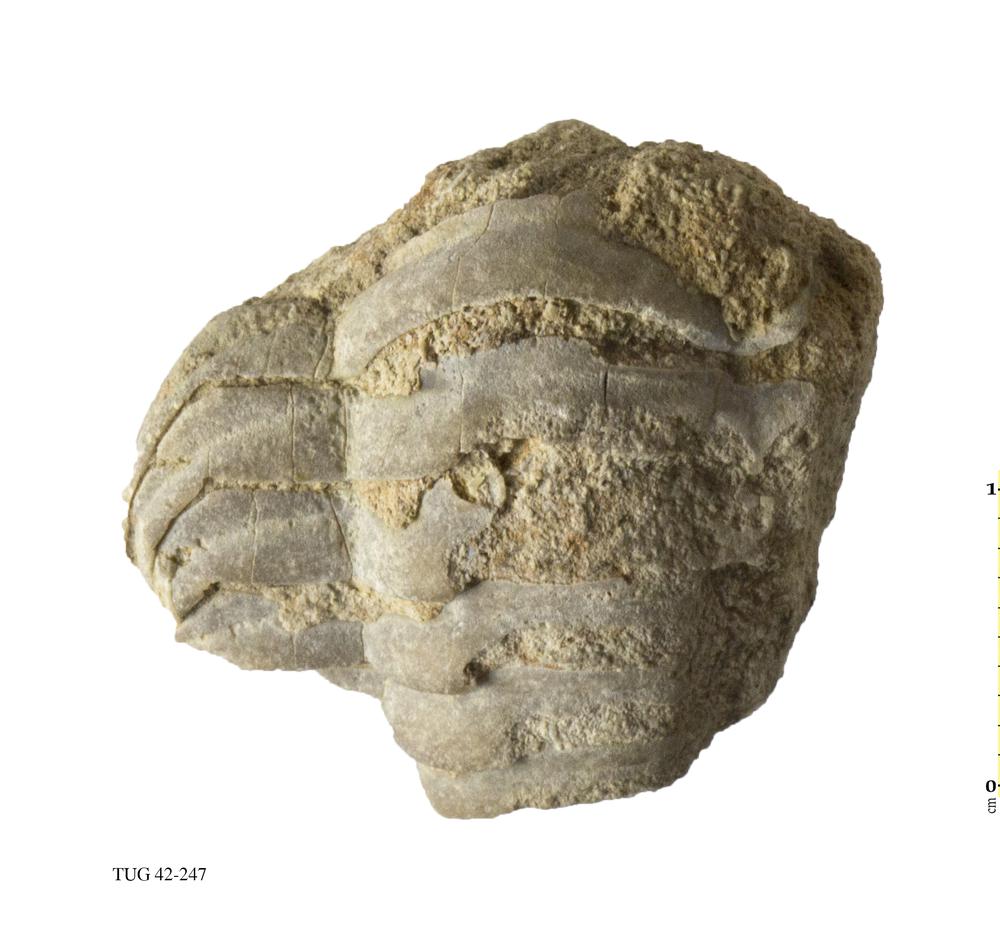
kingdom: Animalia
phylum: Arthropoda
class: Trilobita
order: Phacopida
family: Phacopidae
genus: Phacops
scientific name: Phacops
